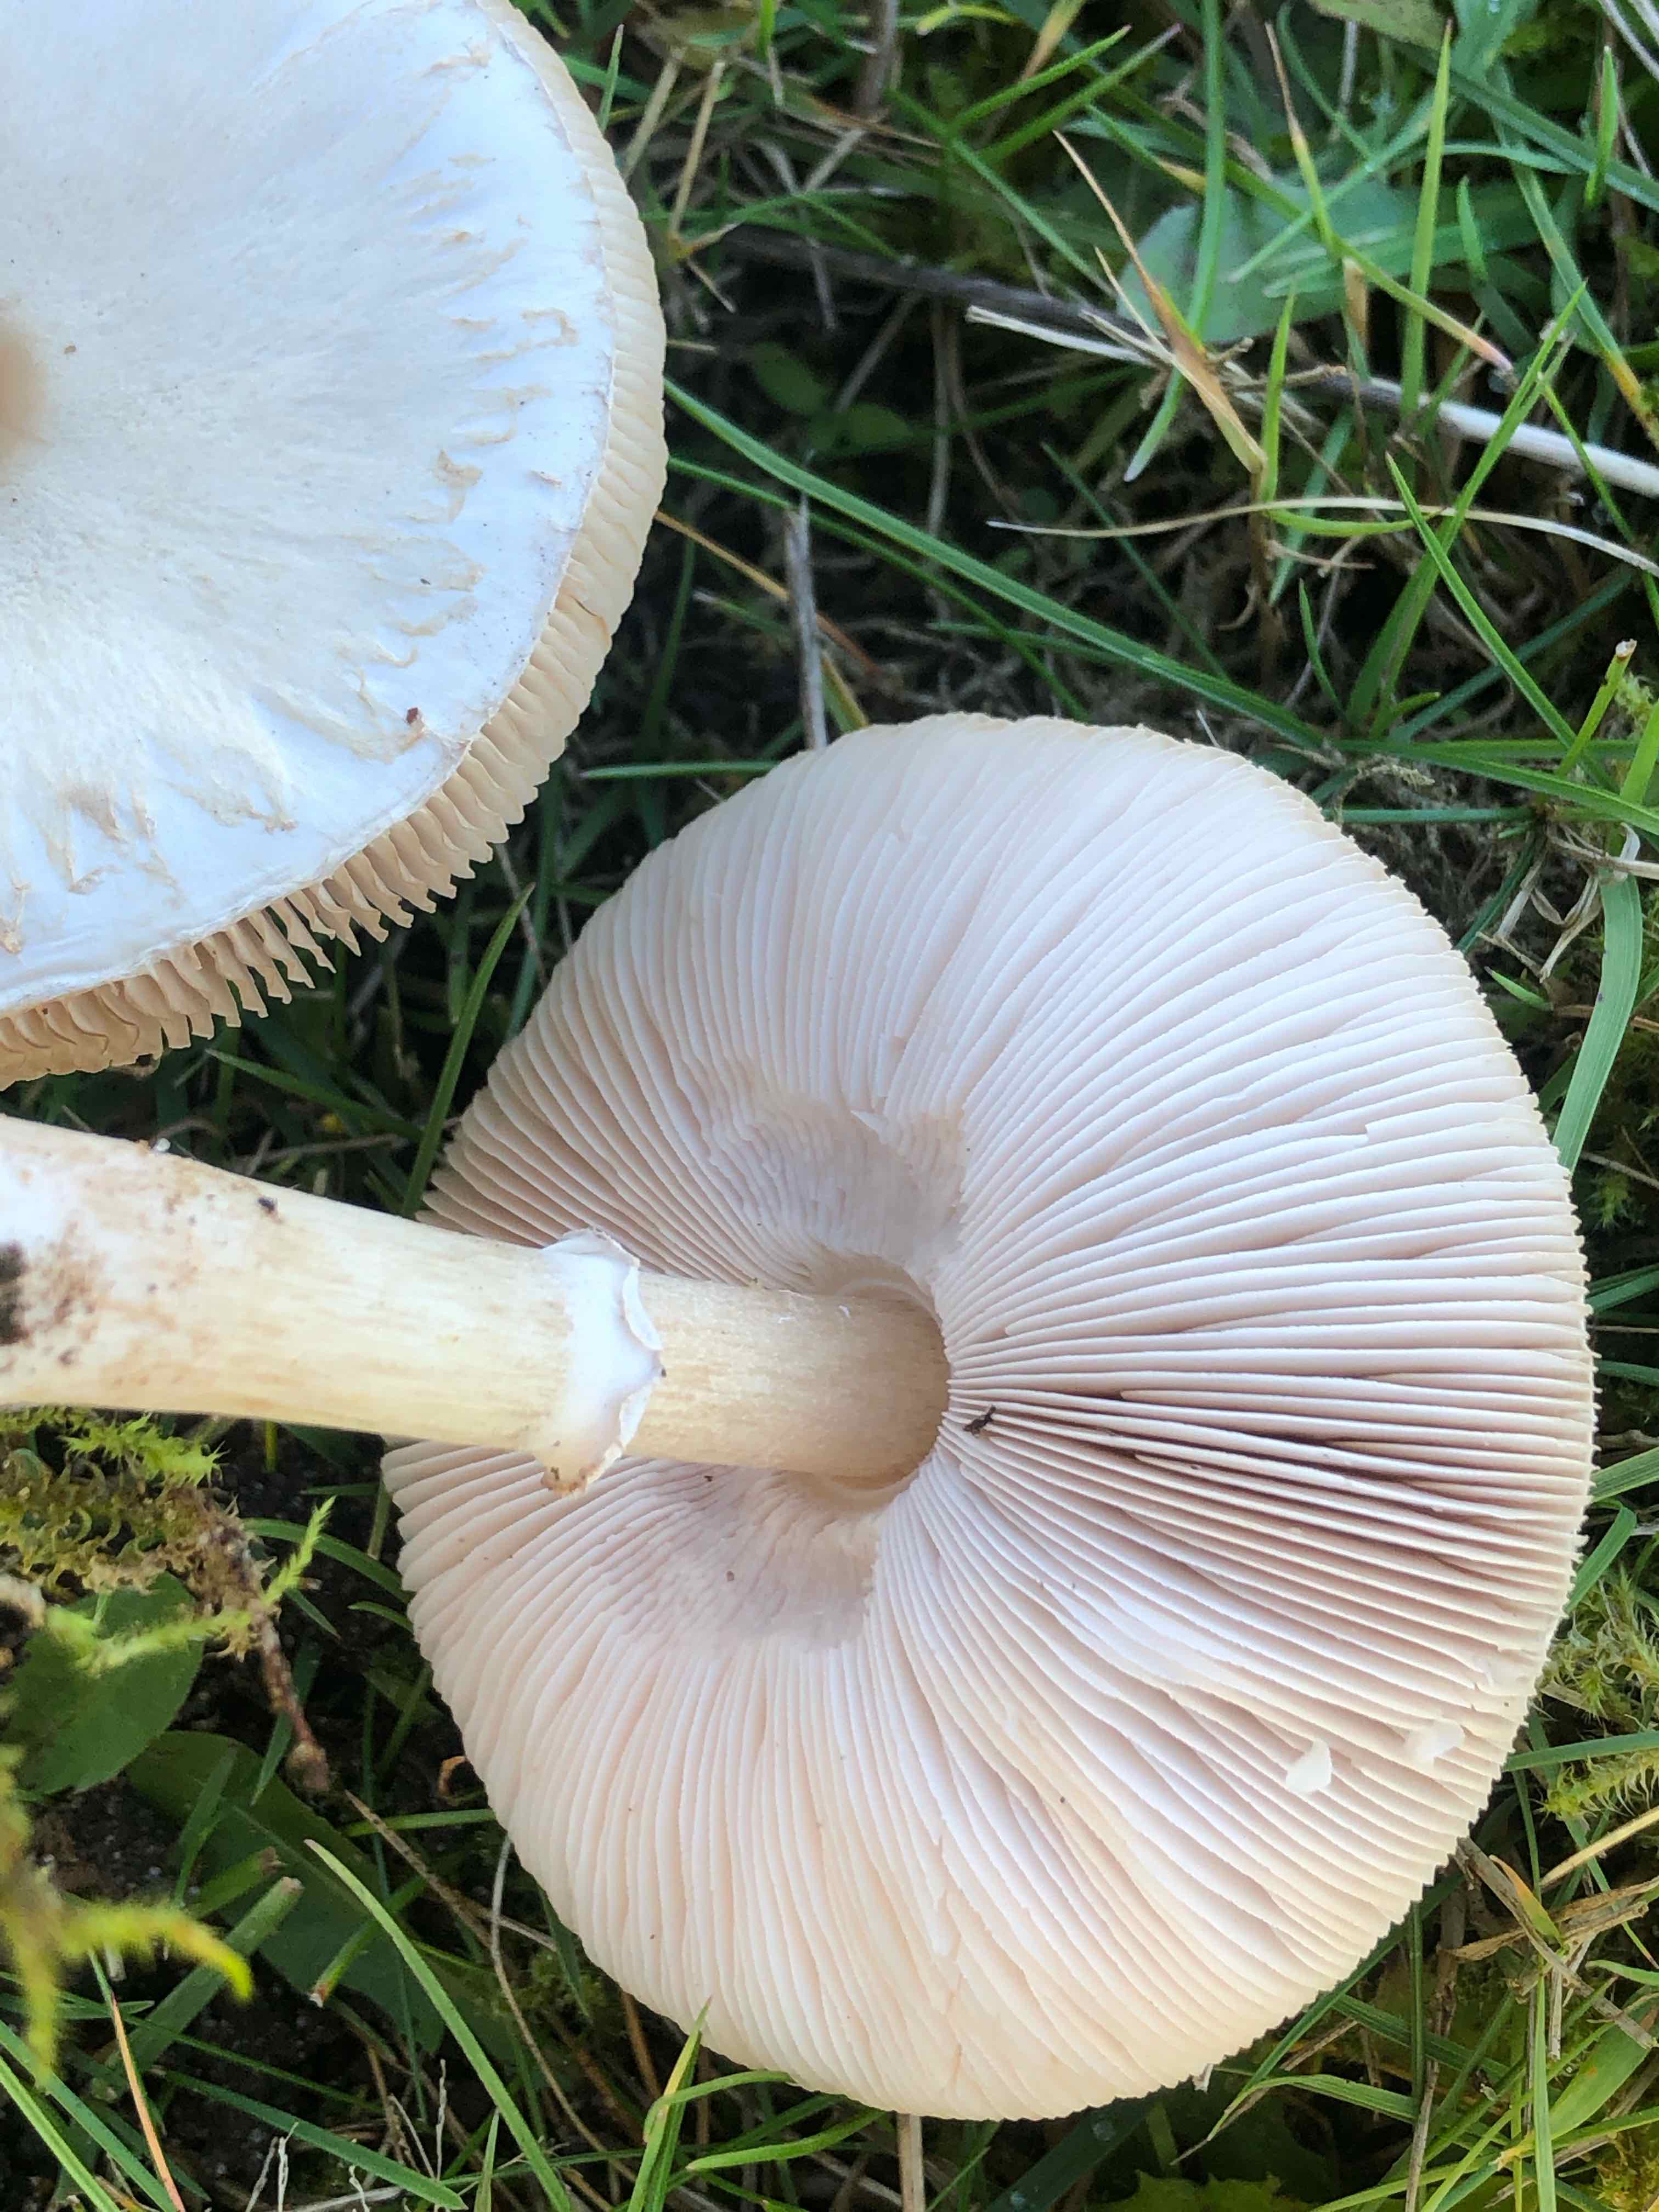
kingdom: Fungi
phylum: Basidiomycota
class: Agaricomycetes
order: Agaricales
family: Agaricaceae
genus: Leucoagaricus
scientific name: Leucoagaricus leucothites
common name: rosabladet silkehat
